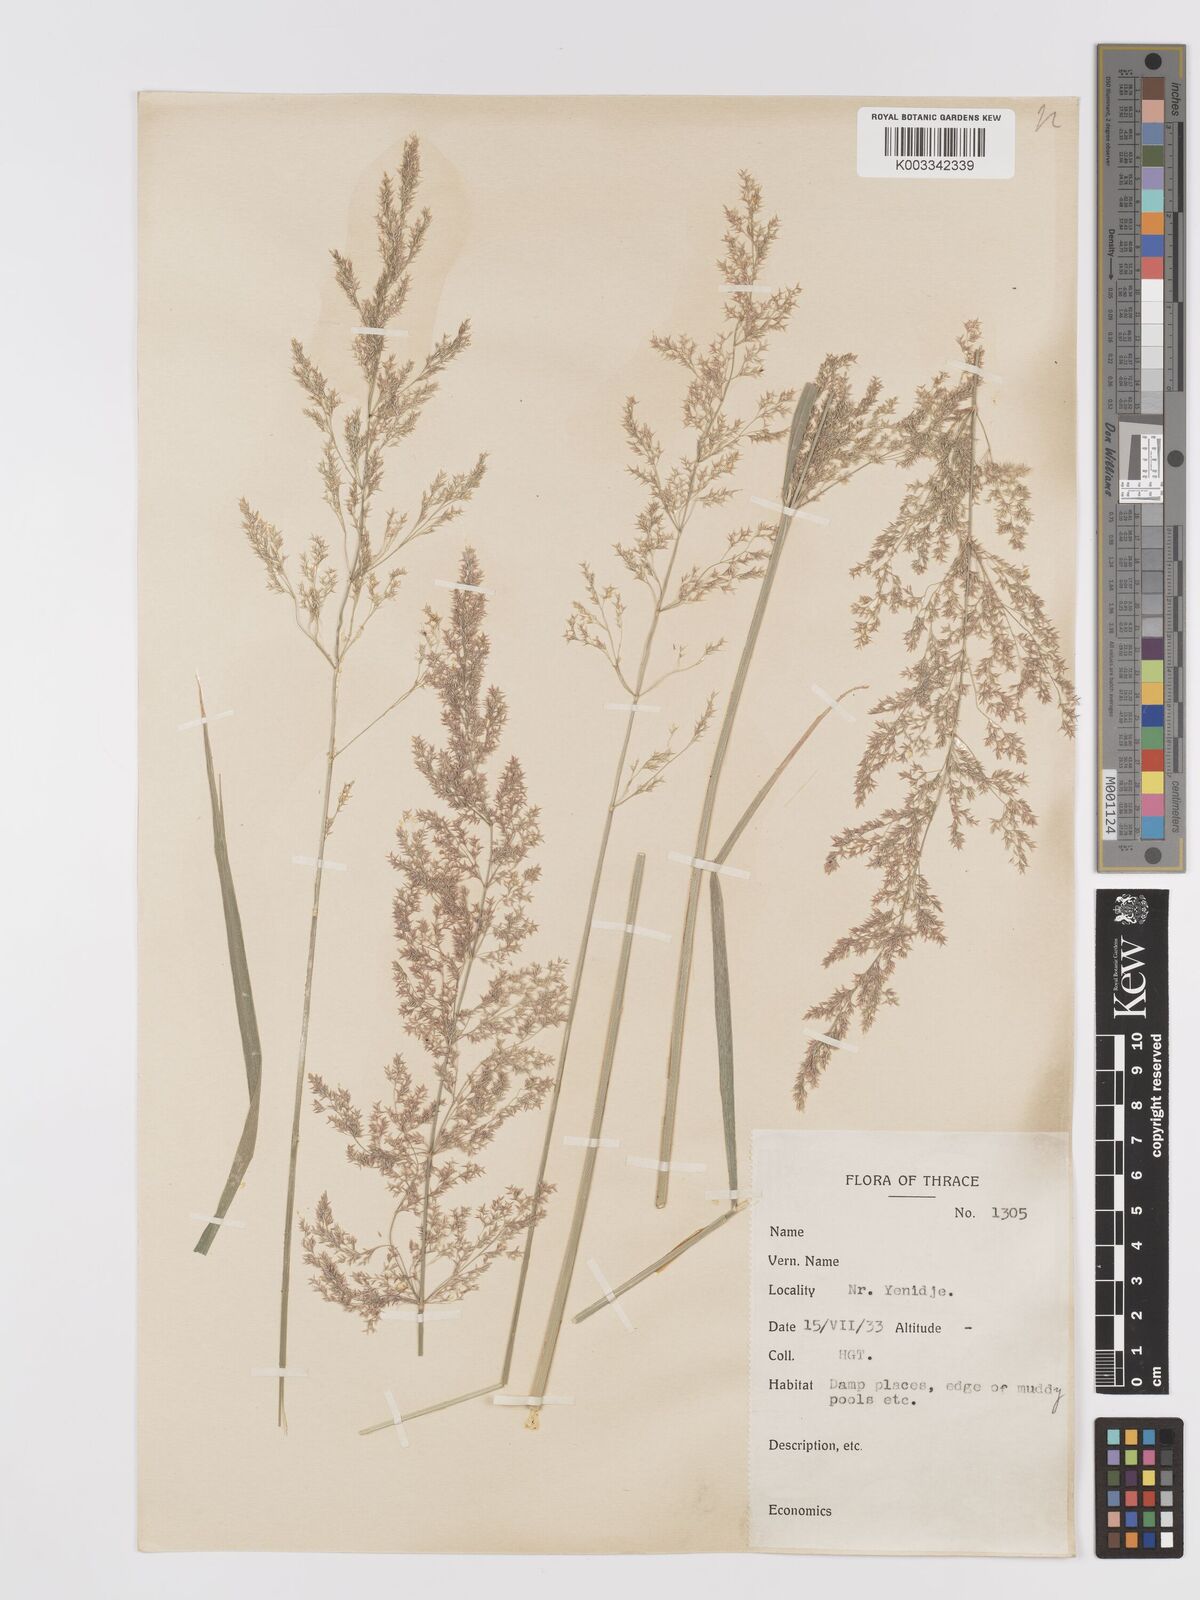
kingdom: Plantae
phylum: Tracheophyta
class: Liliopsida
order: Poales
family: Poaceae
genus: Agrostis
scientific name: Agrostis stolonifera
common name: Creeping bentgrass
